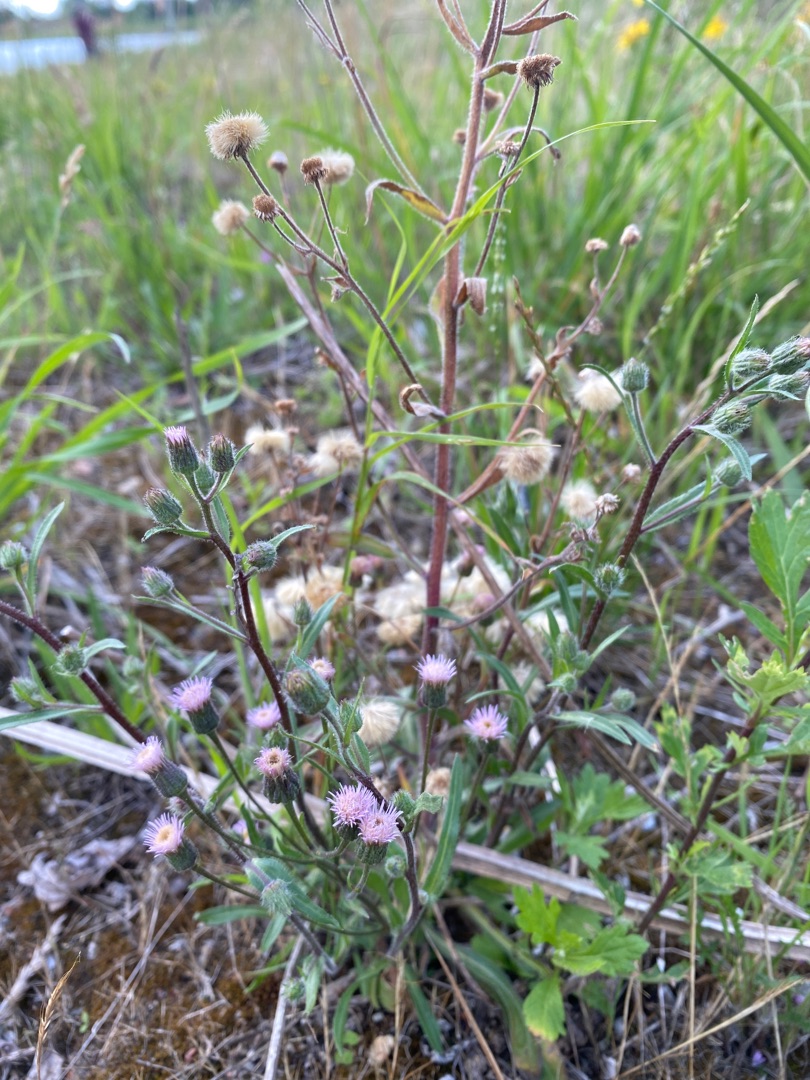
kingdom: Plantae
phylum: Tracheophyta
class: Magnoliopsida
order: Asterales
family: Asteraceae
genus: Erigeron
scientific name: Erigeron acris
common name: Bitter bakkestjerne
